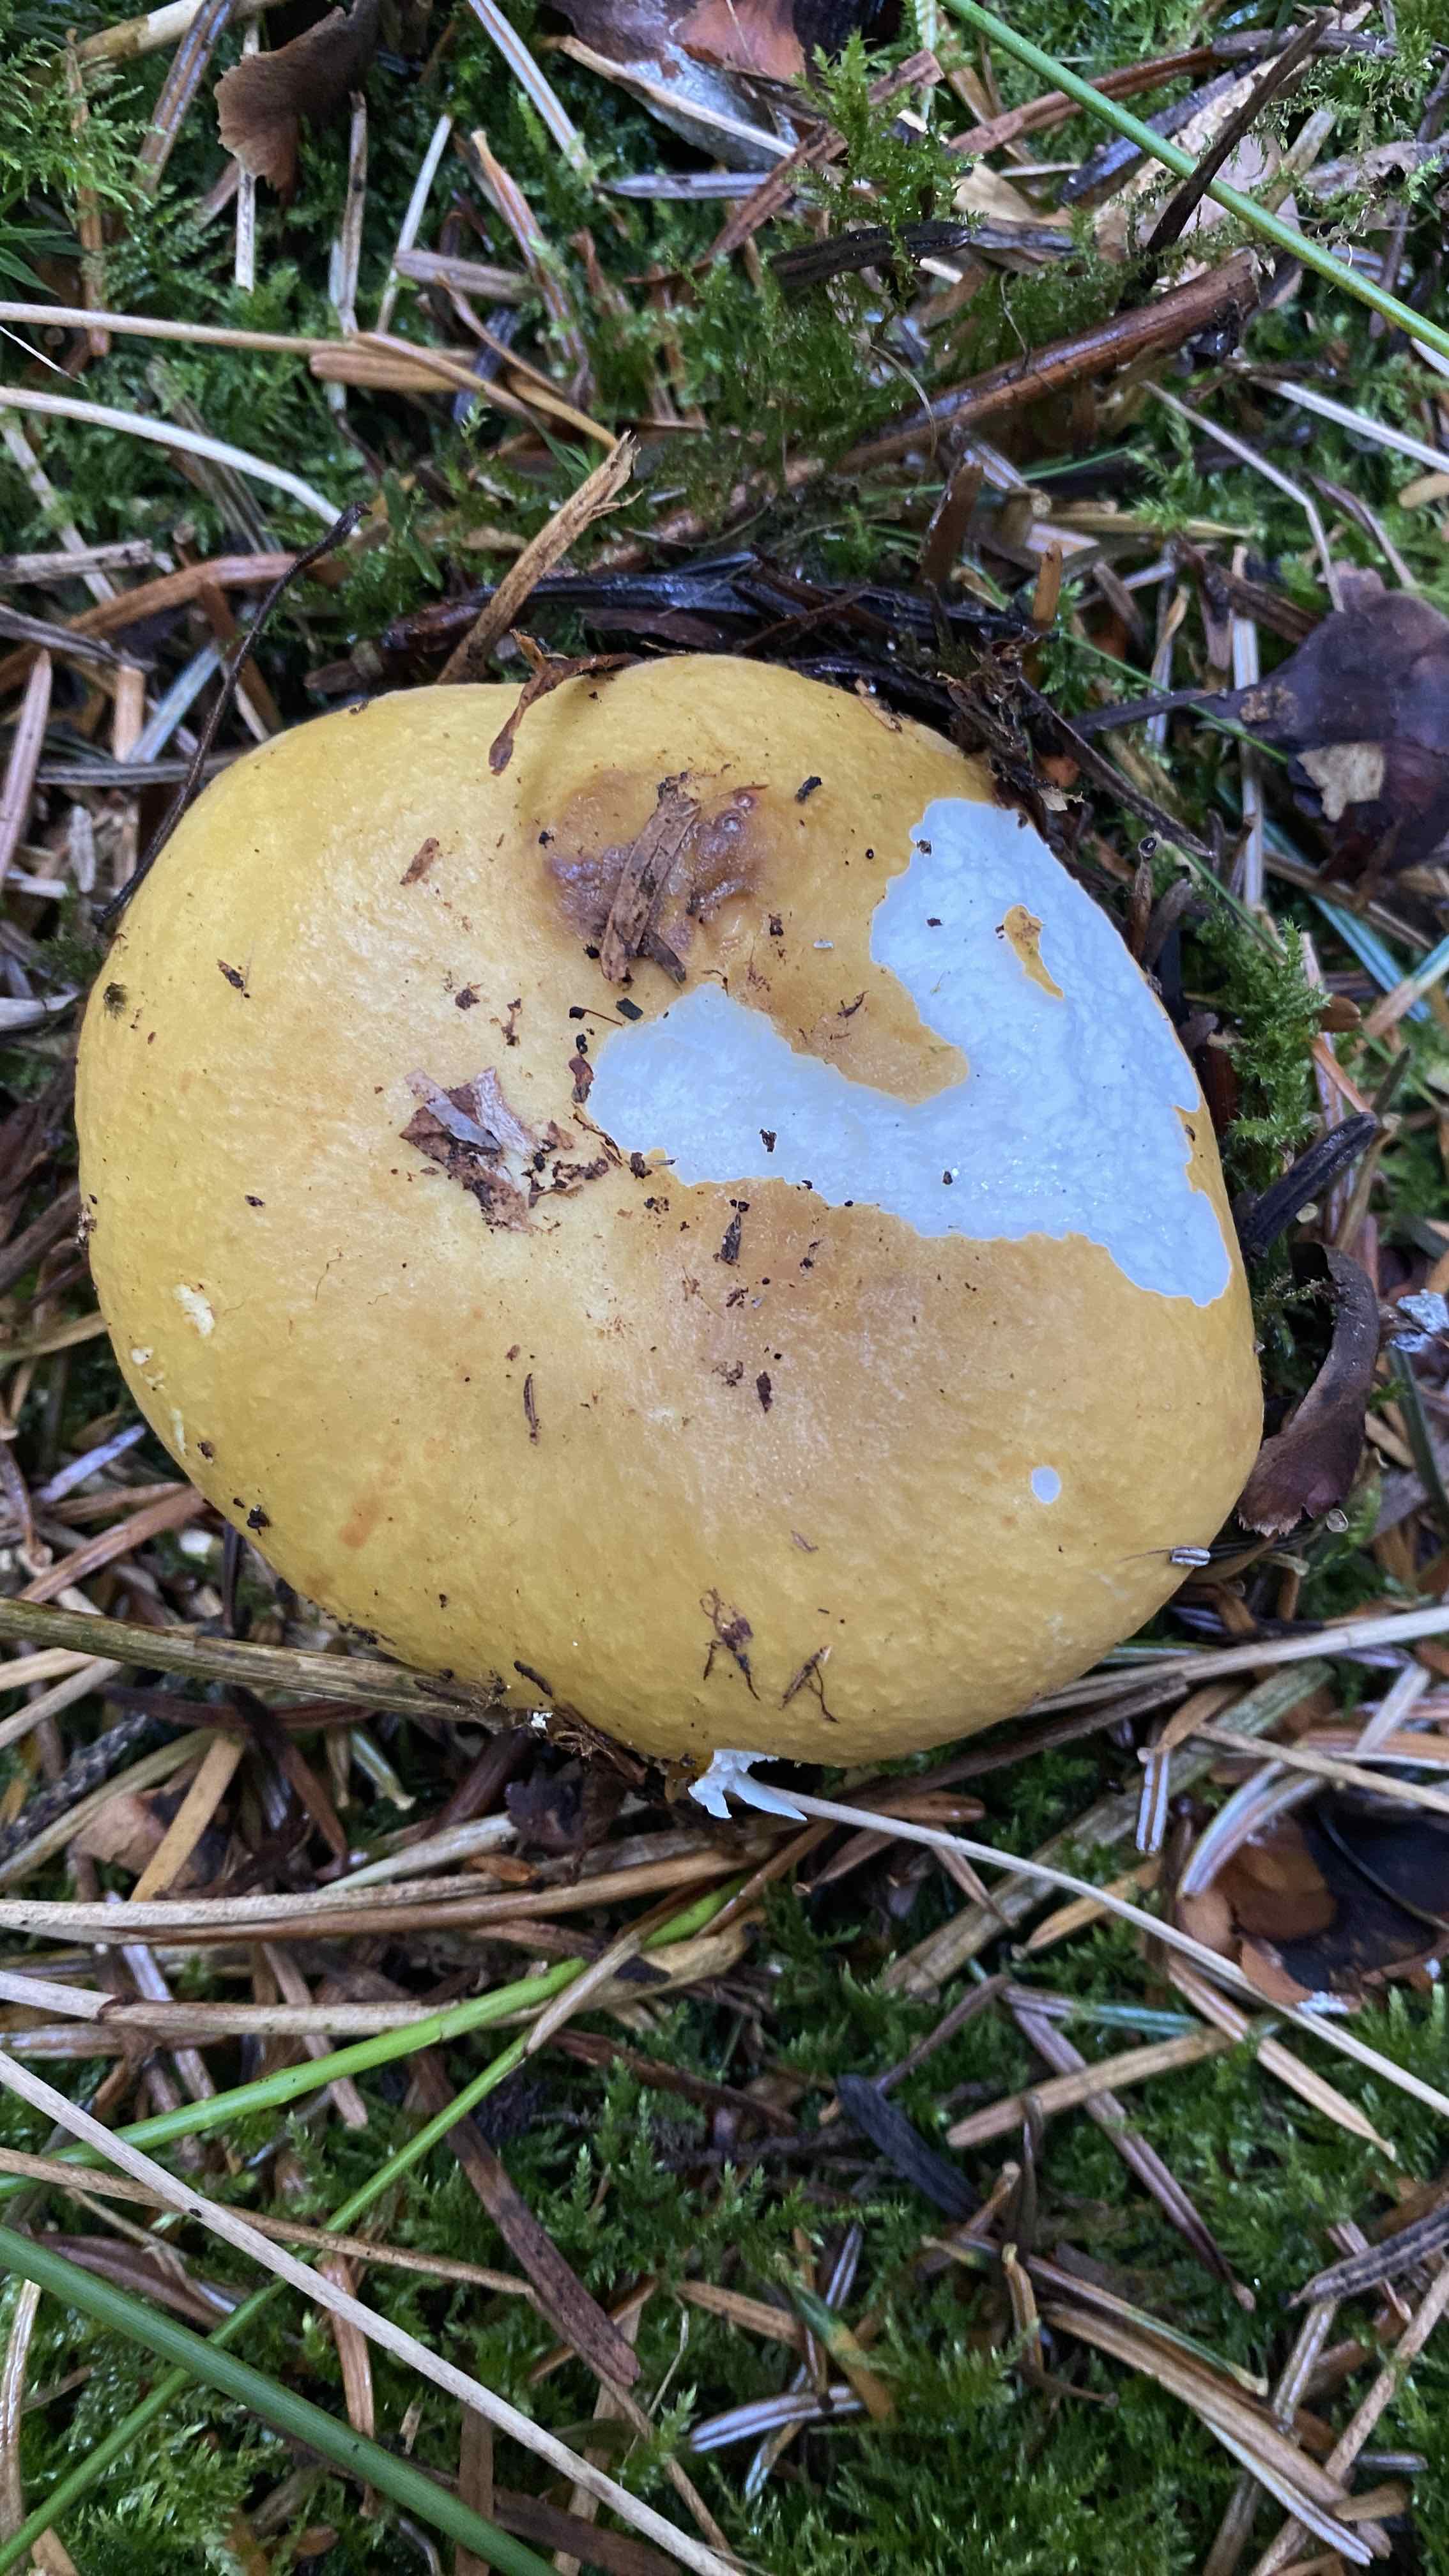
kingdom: Fungi
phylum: Basidiomycota
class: Agaricomycetes
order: Russulales
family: Russulaceae
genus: Russula
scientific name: Russula ochroleuca
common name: okkergul skørhat
